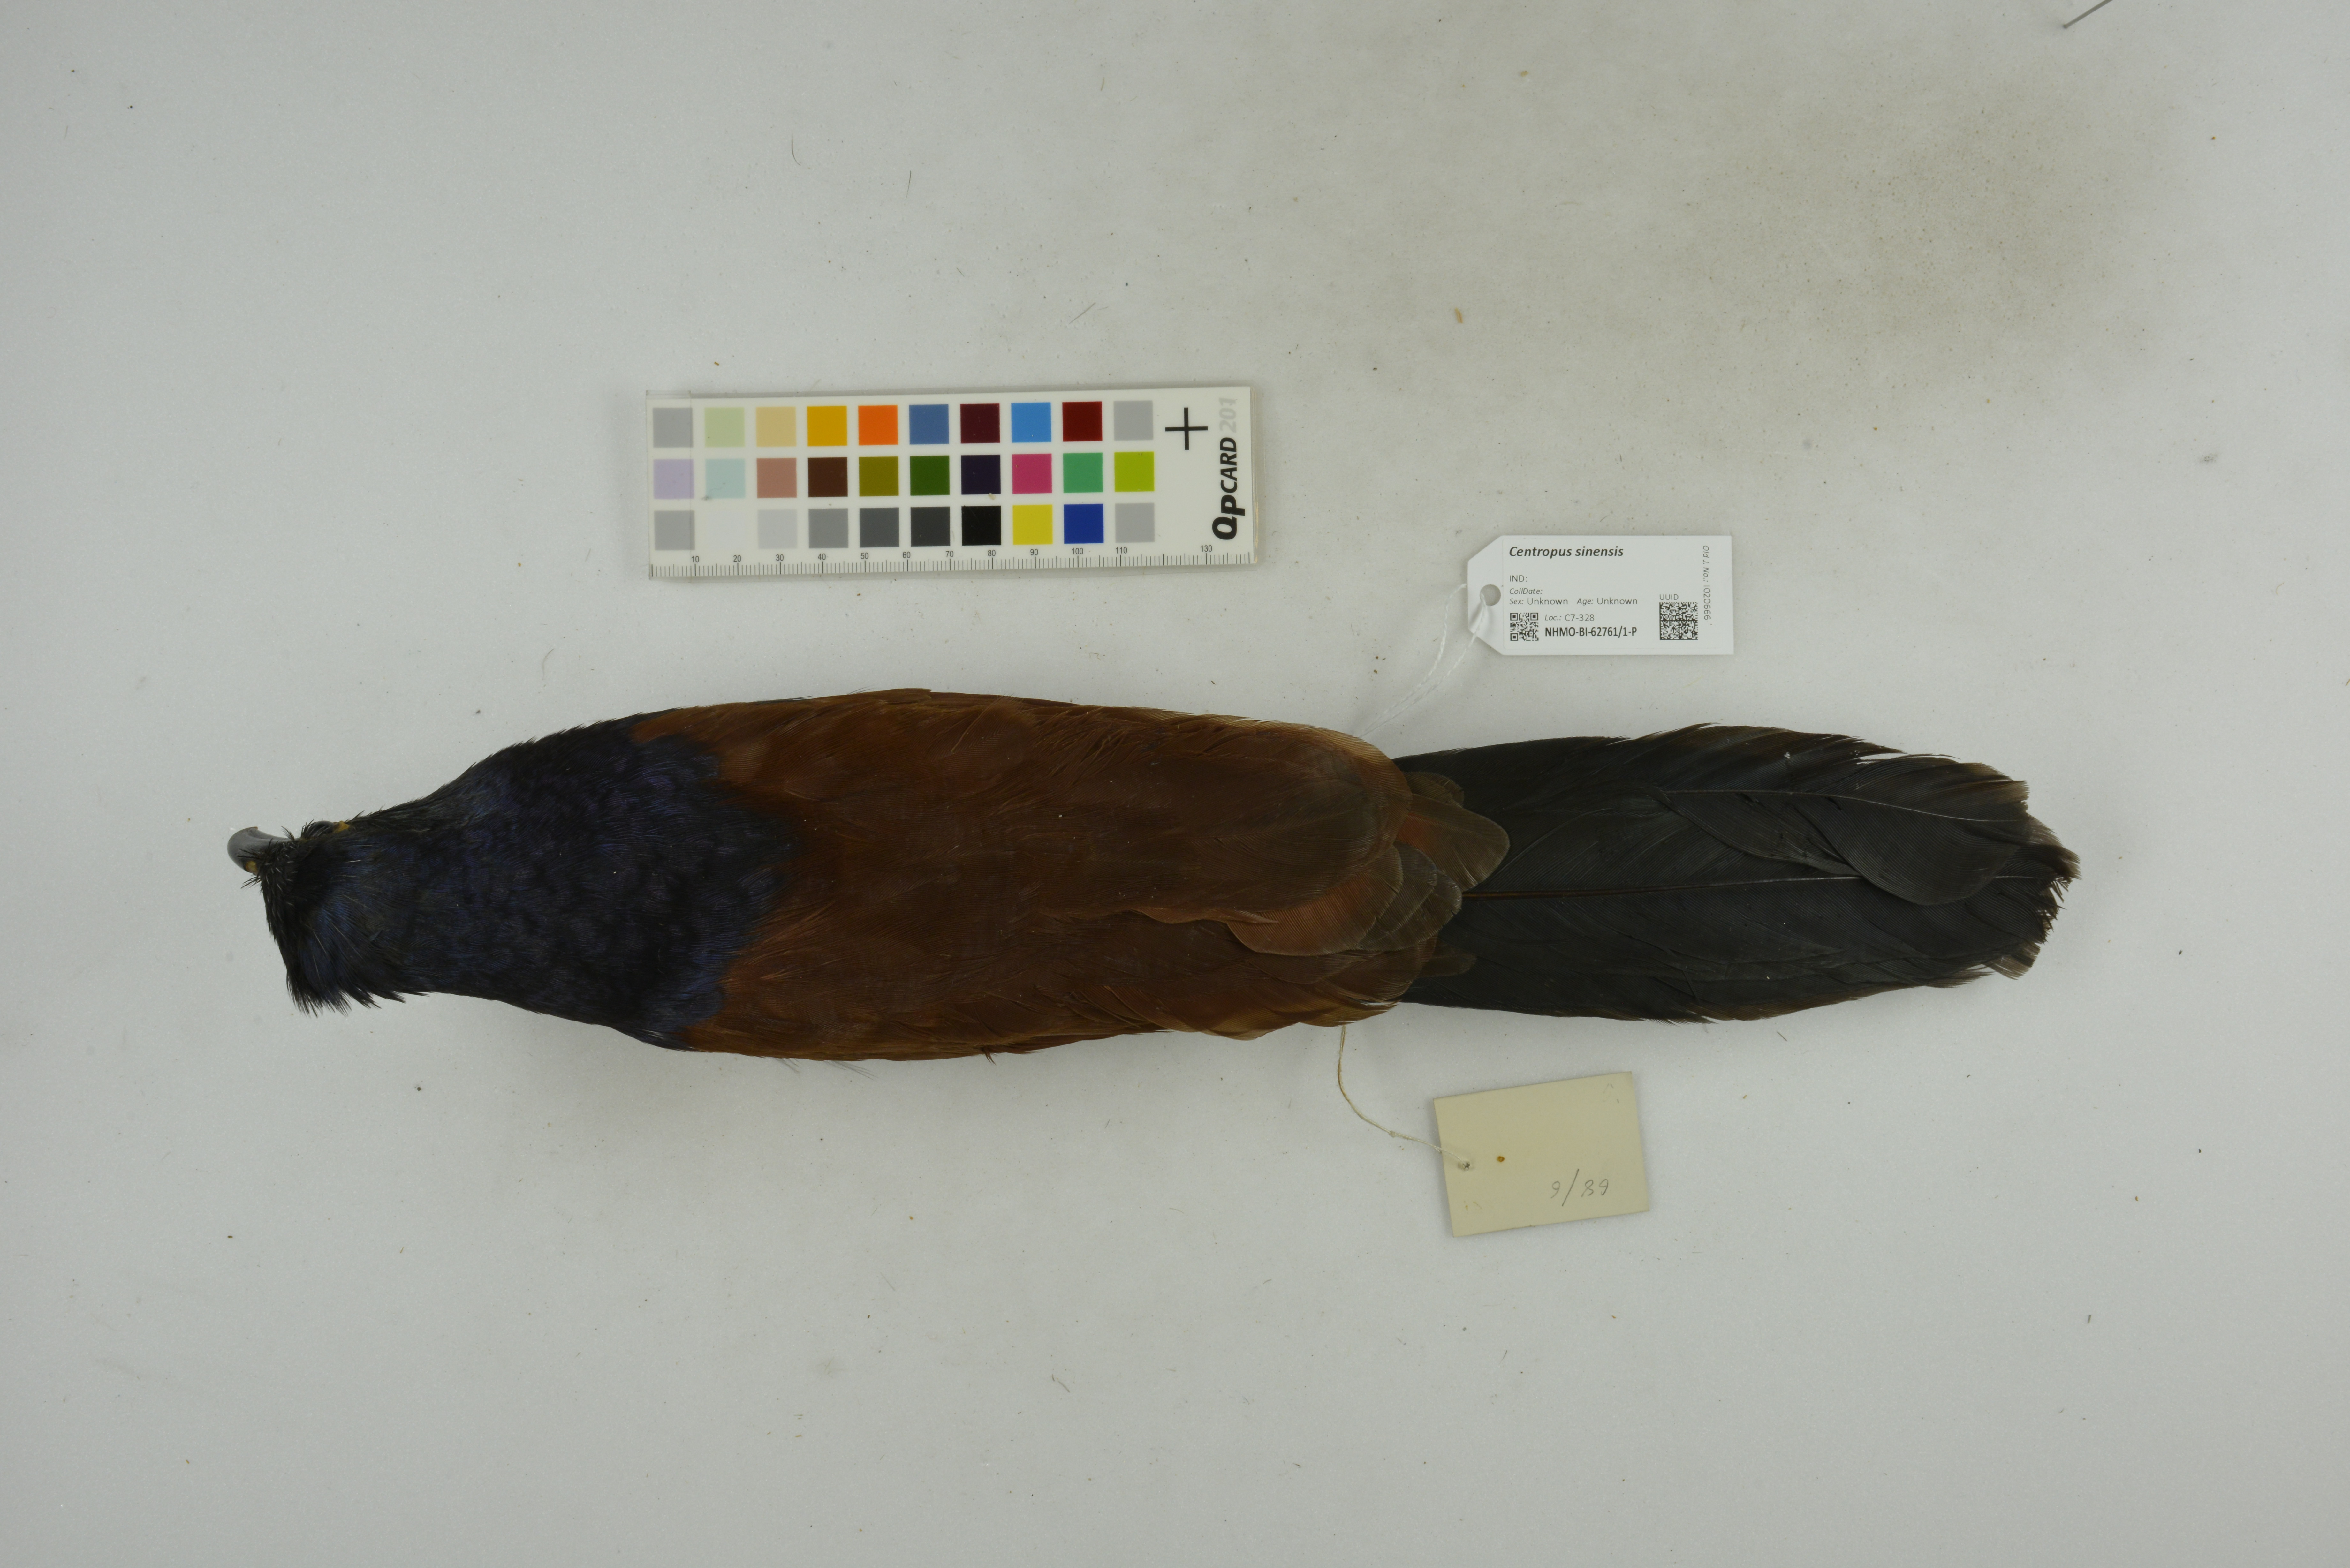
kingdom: Animalia
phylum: Chordata
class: Aves
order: Cuculiformes
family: Cuculidae
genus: Centropus
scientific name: Centropus sinensis
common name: Greater coucal
